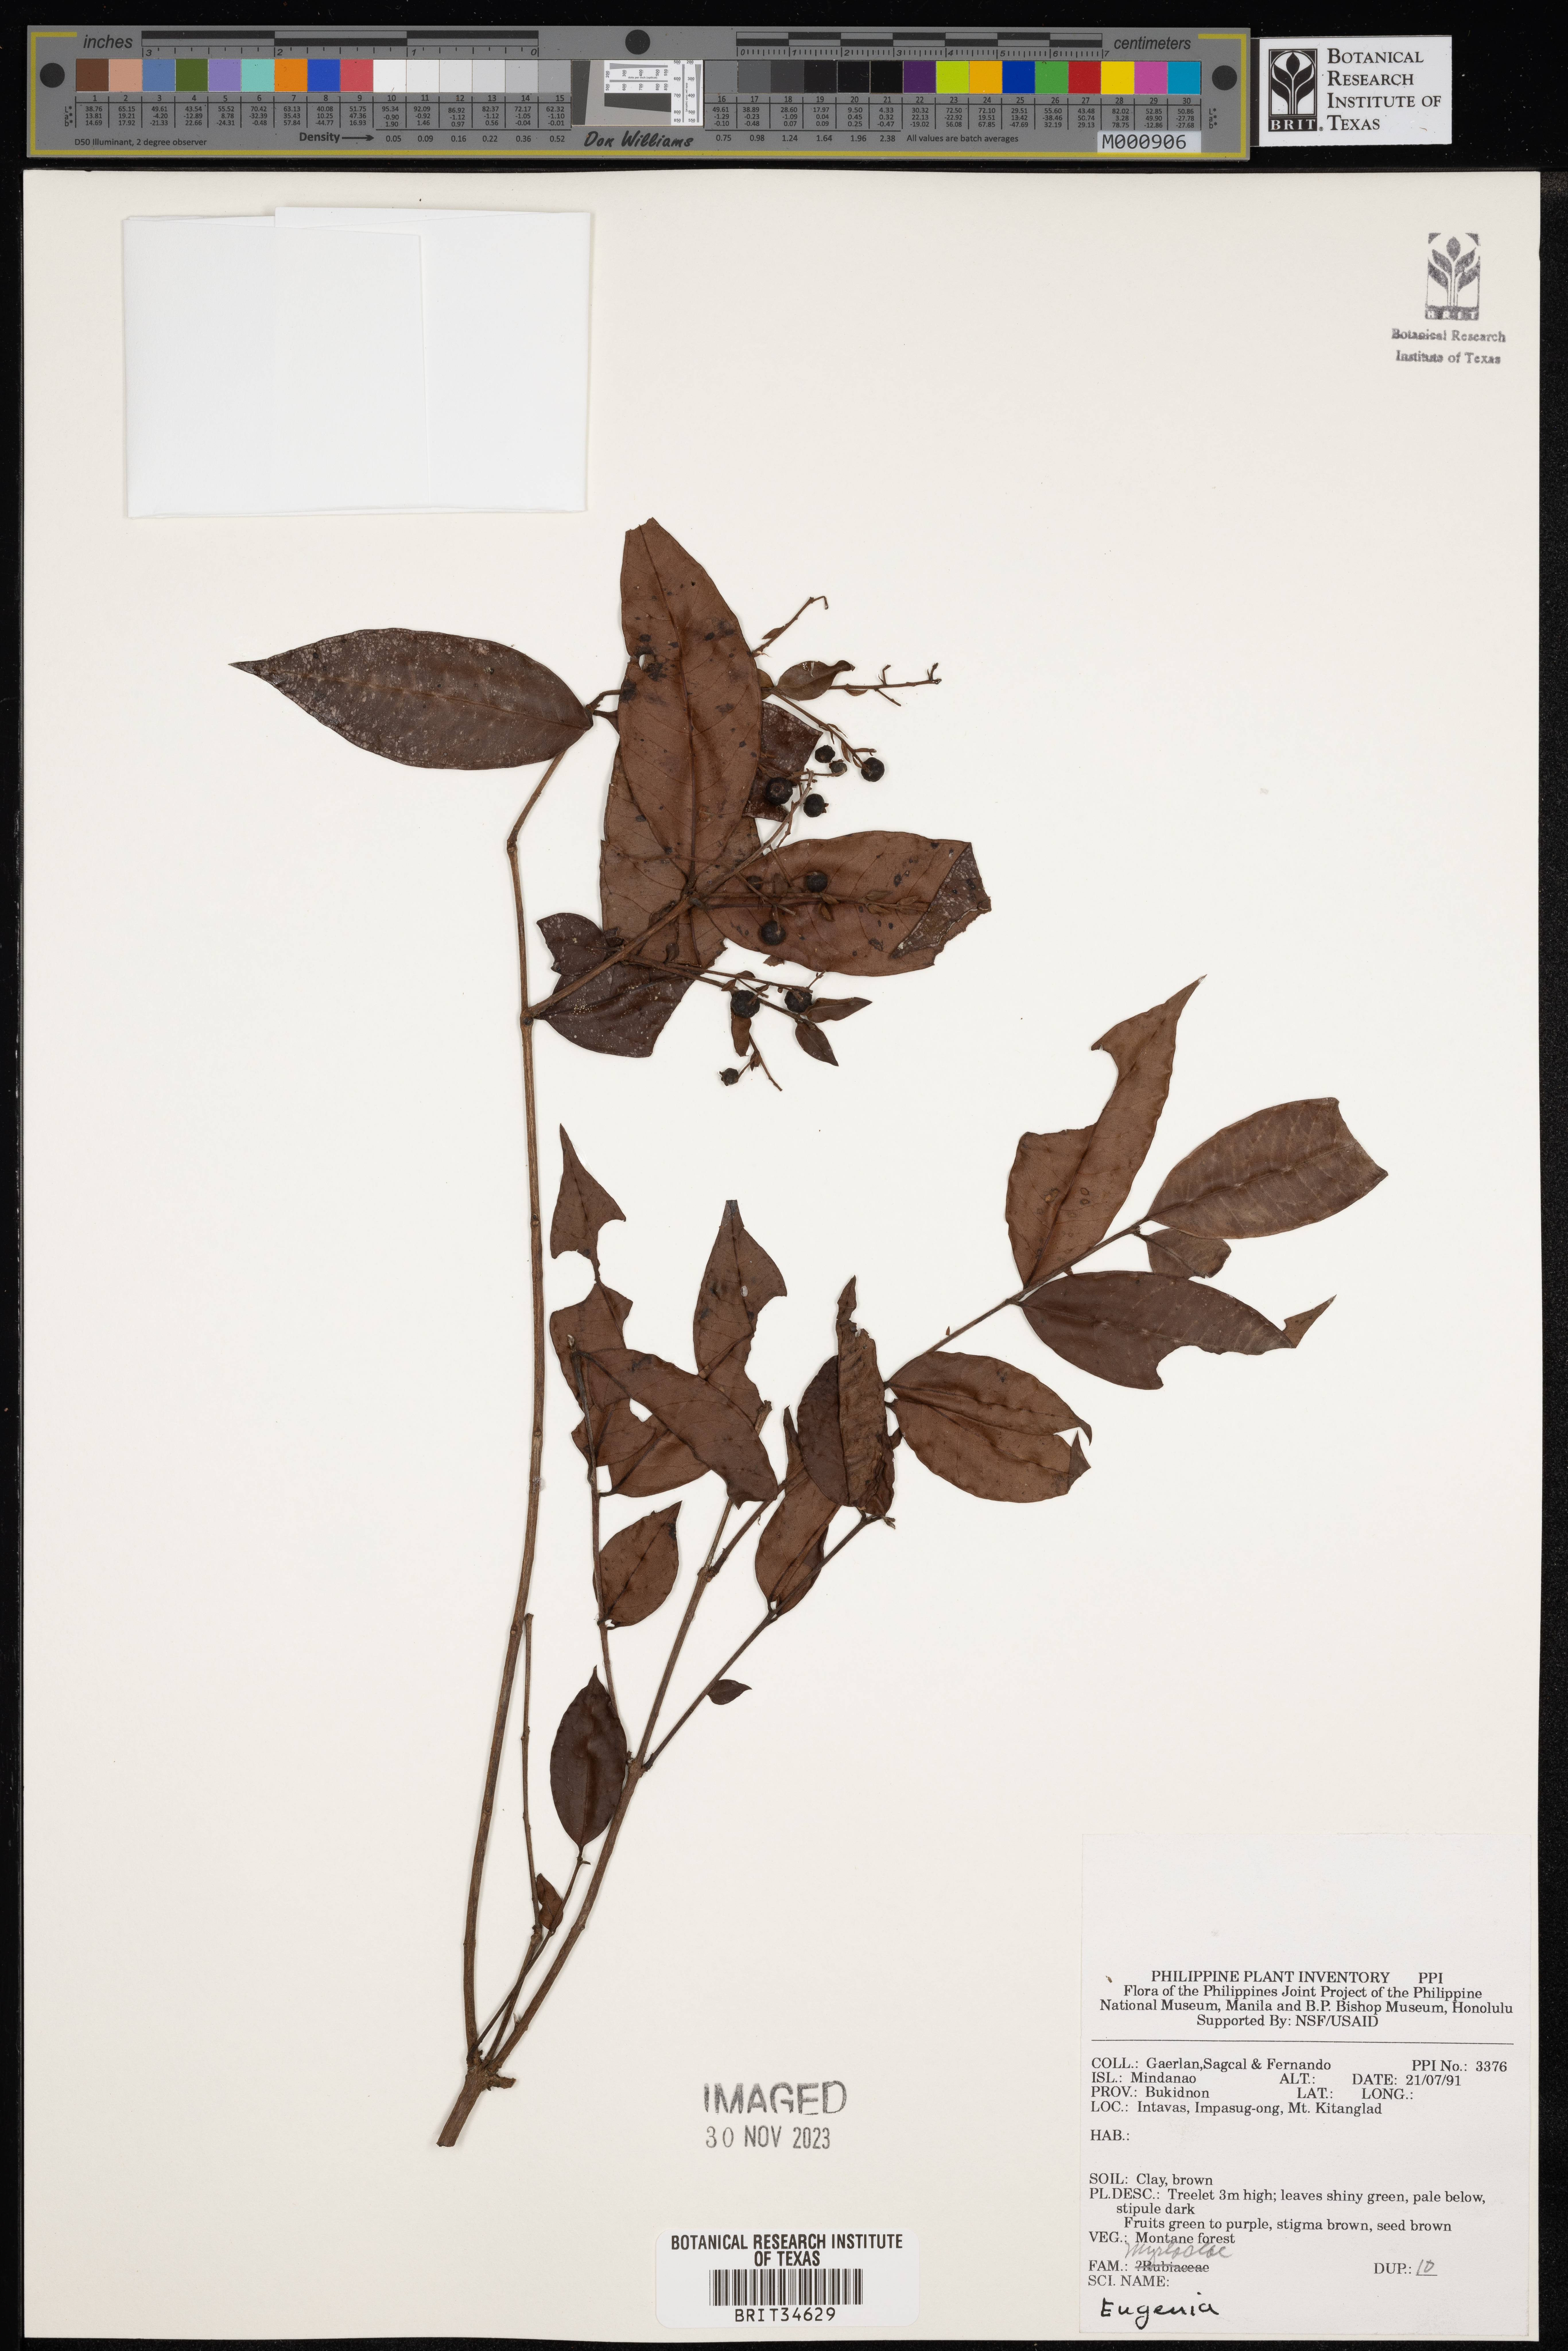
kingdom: Plantae
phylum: Tracheophyta
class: Magnoliopsida
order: Myrtales
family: Myrtaceae
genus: Eugenia
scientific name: Eugenia
